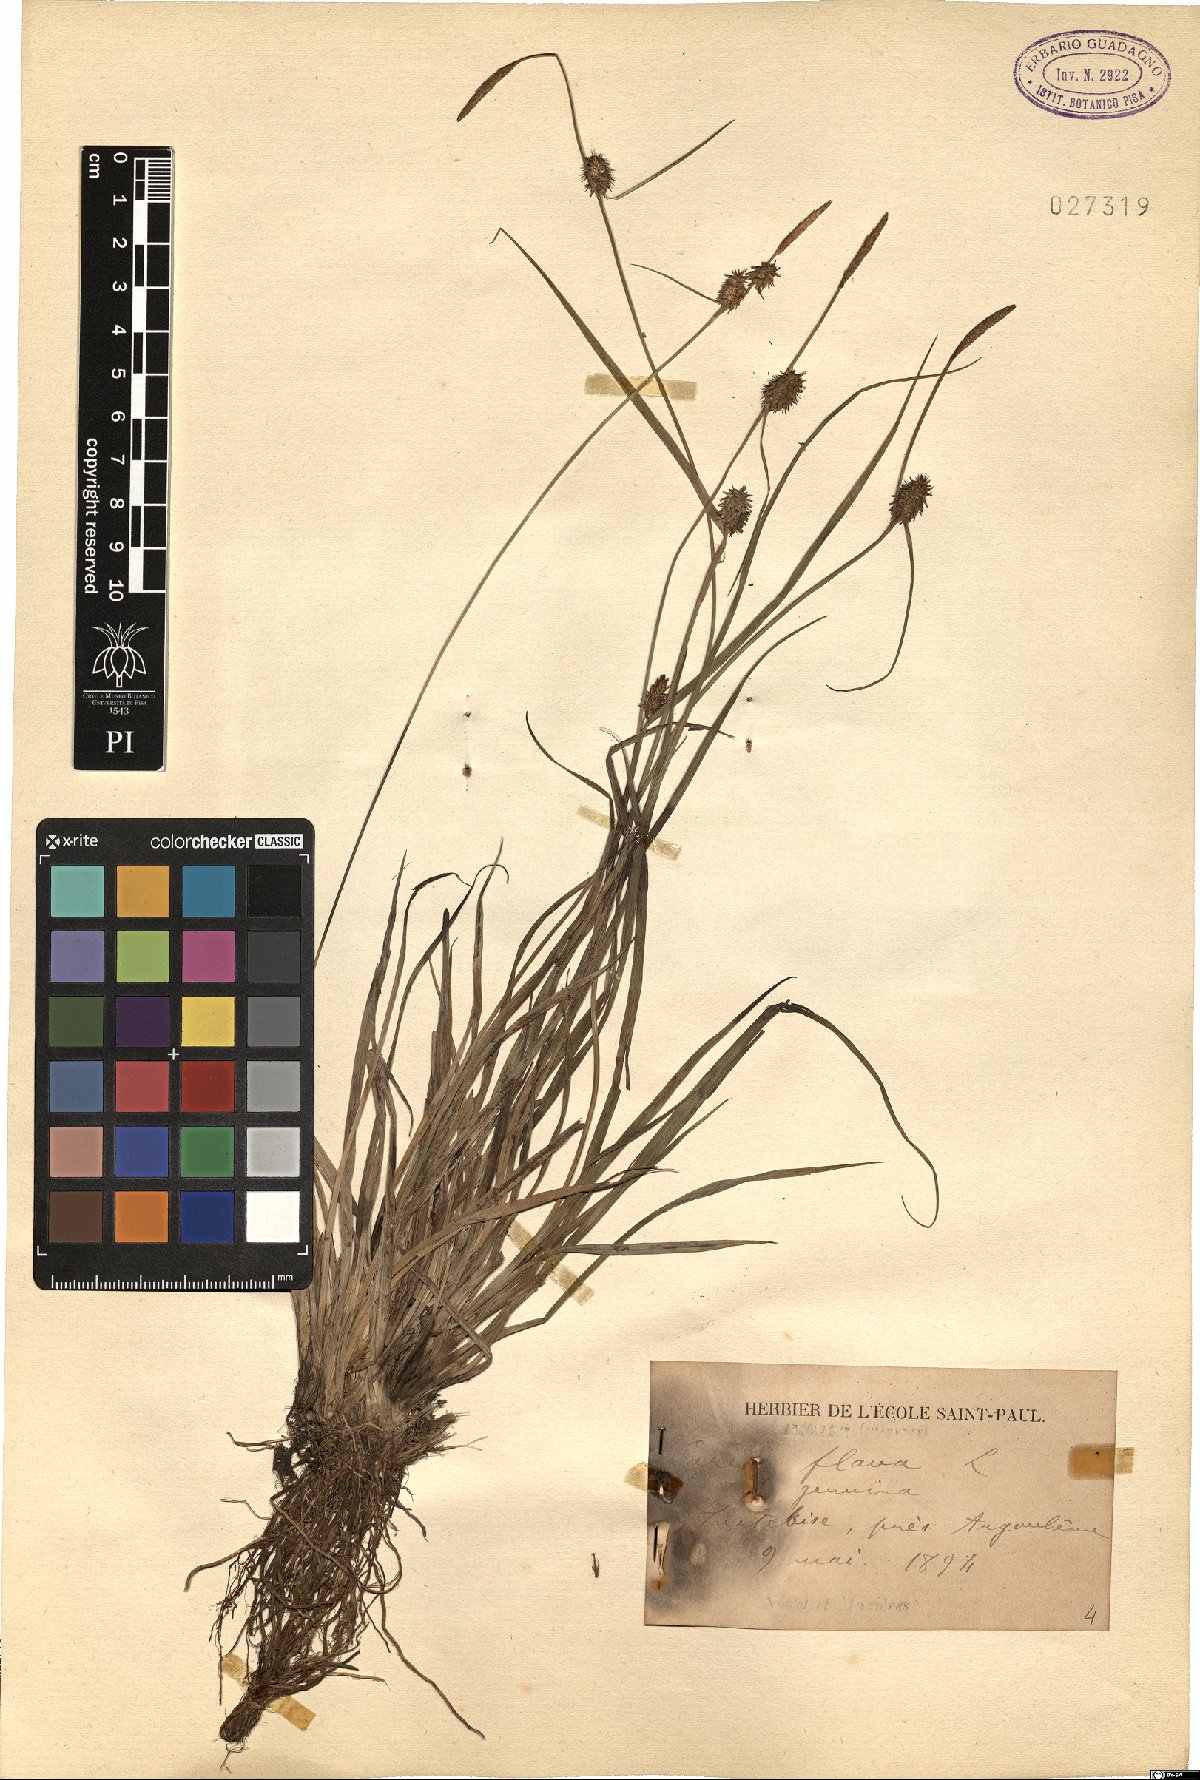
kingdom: Plantae
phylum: Tracheophyta
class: Liliopsida
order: Poales
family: Cyperaceae
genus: Carex
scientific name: Carex flava
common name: Large yellow-sedge
